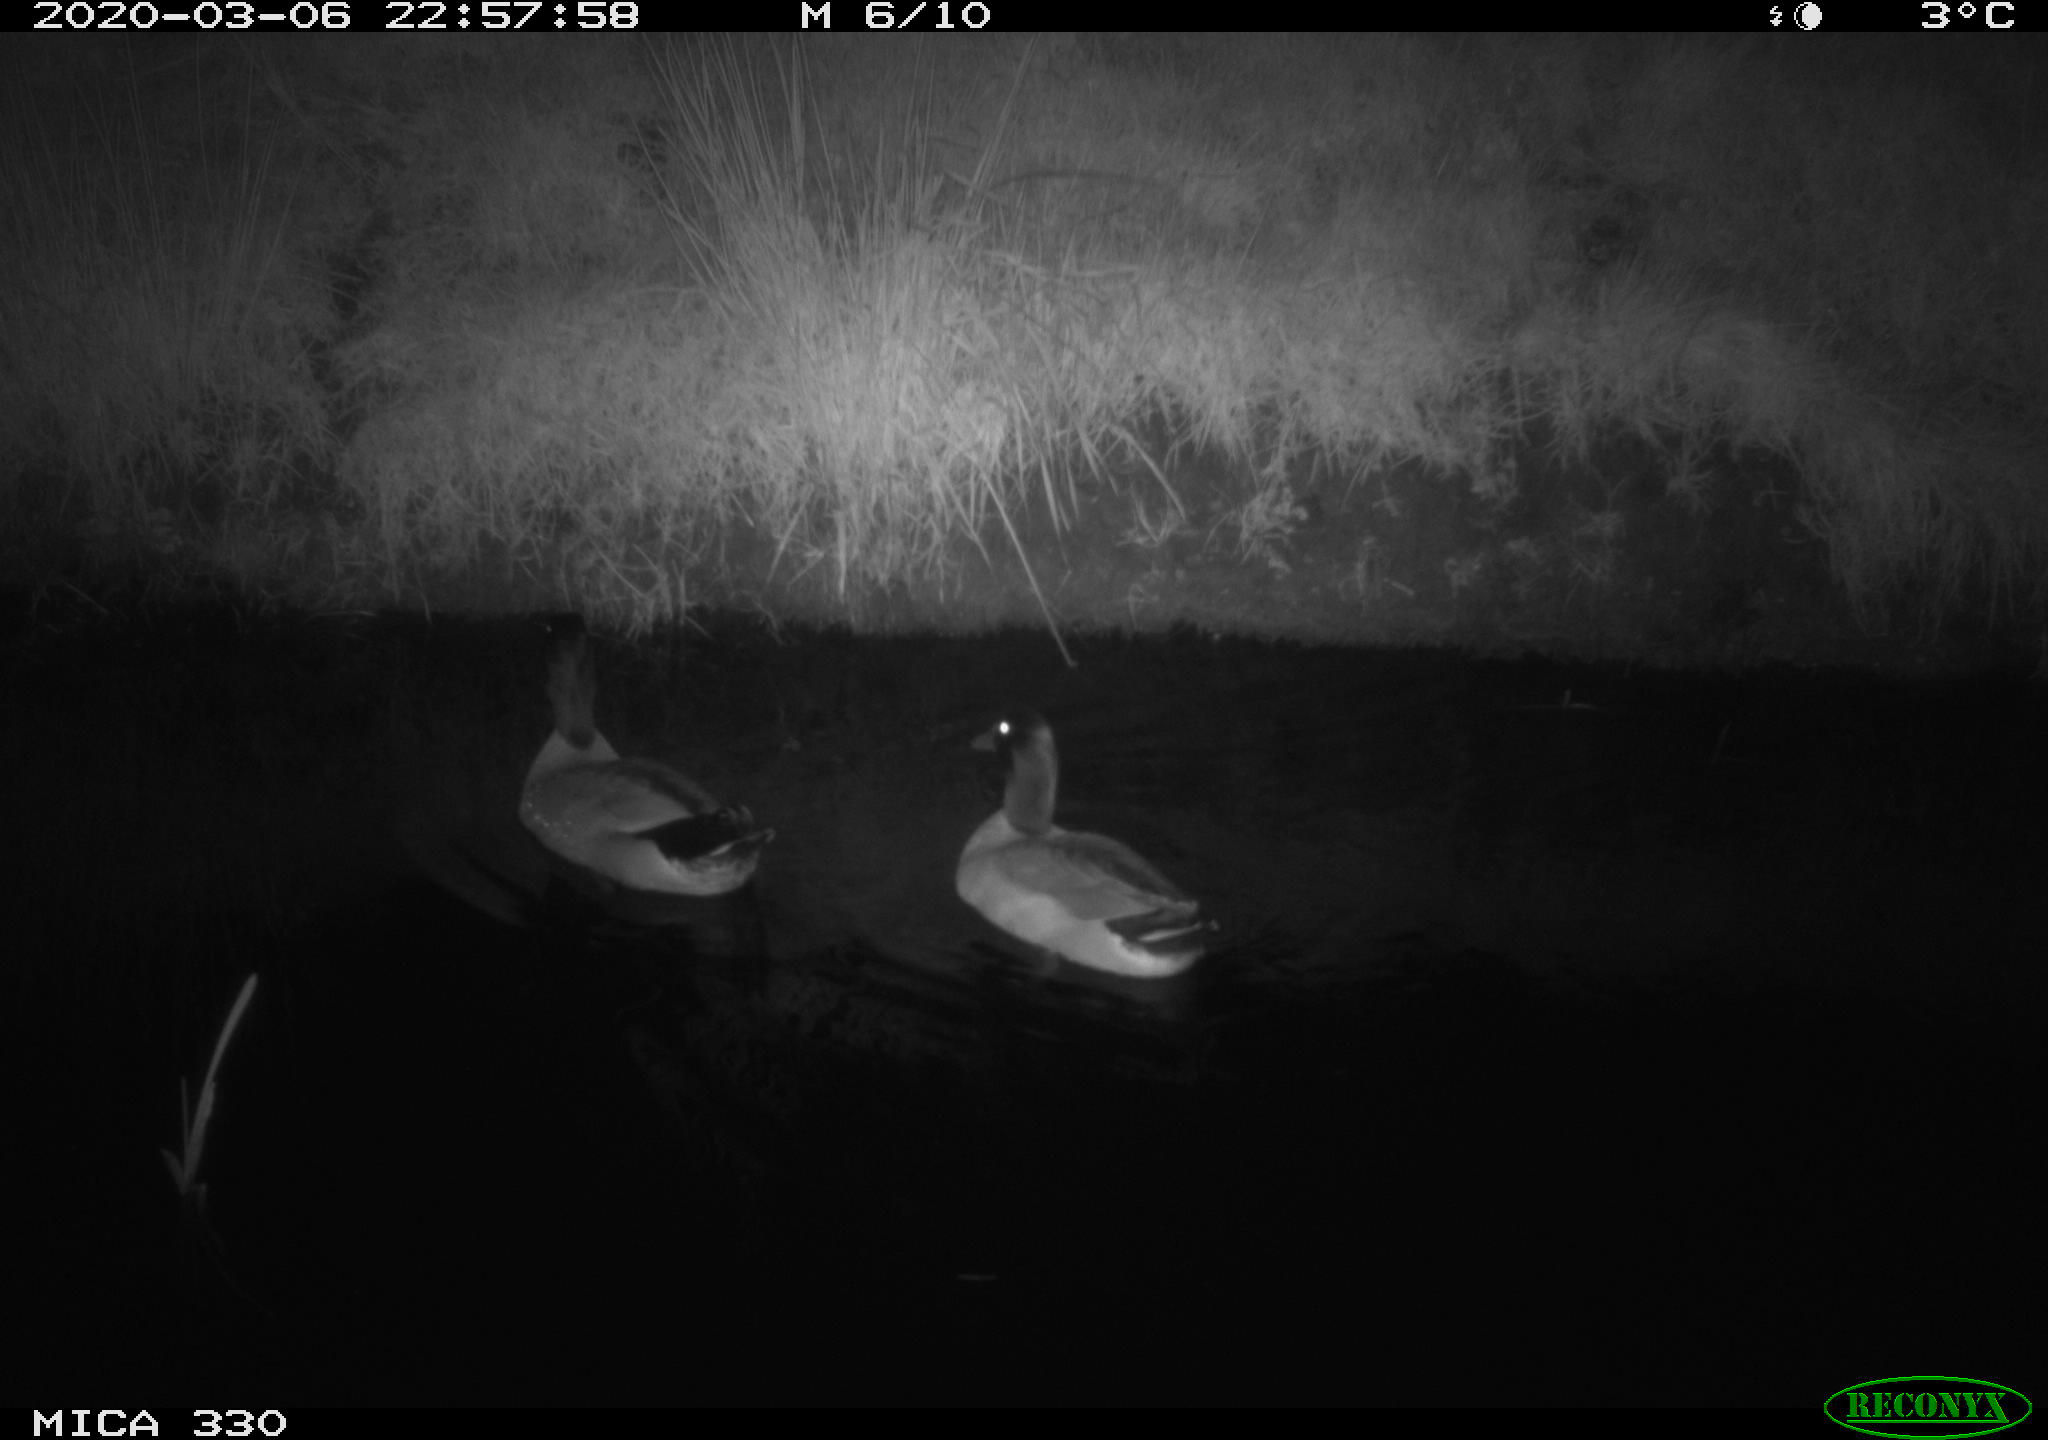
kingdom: Animalia
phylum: Chordata
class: Aves
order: Anseriformes
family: Anatidae
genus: Anas
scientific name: Anas platyrhynchos
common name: Mallard
